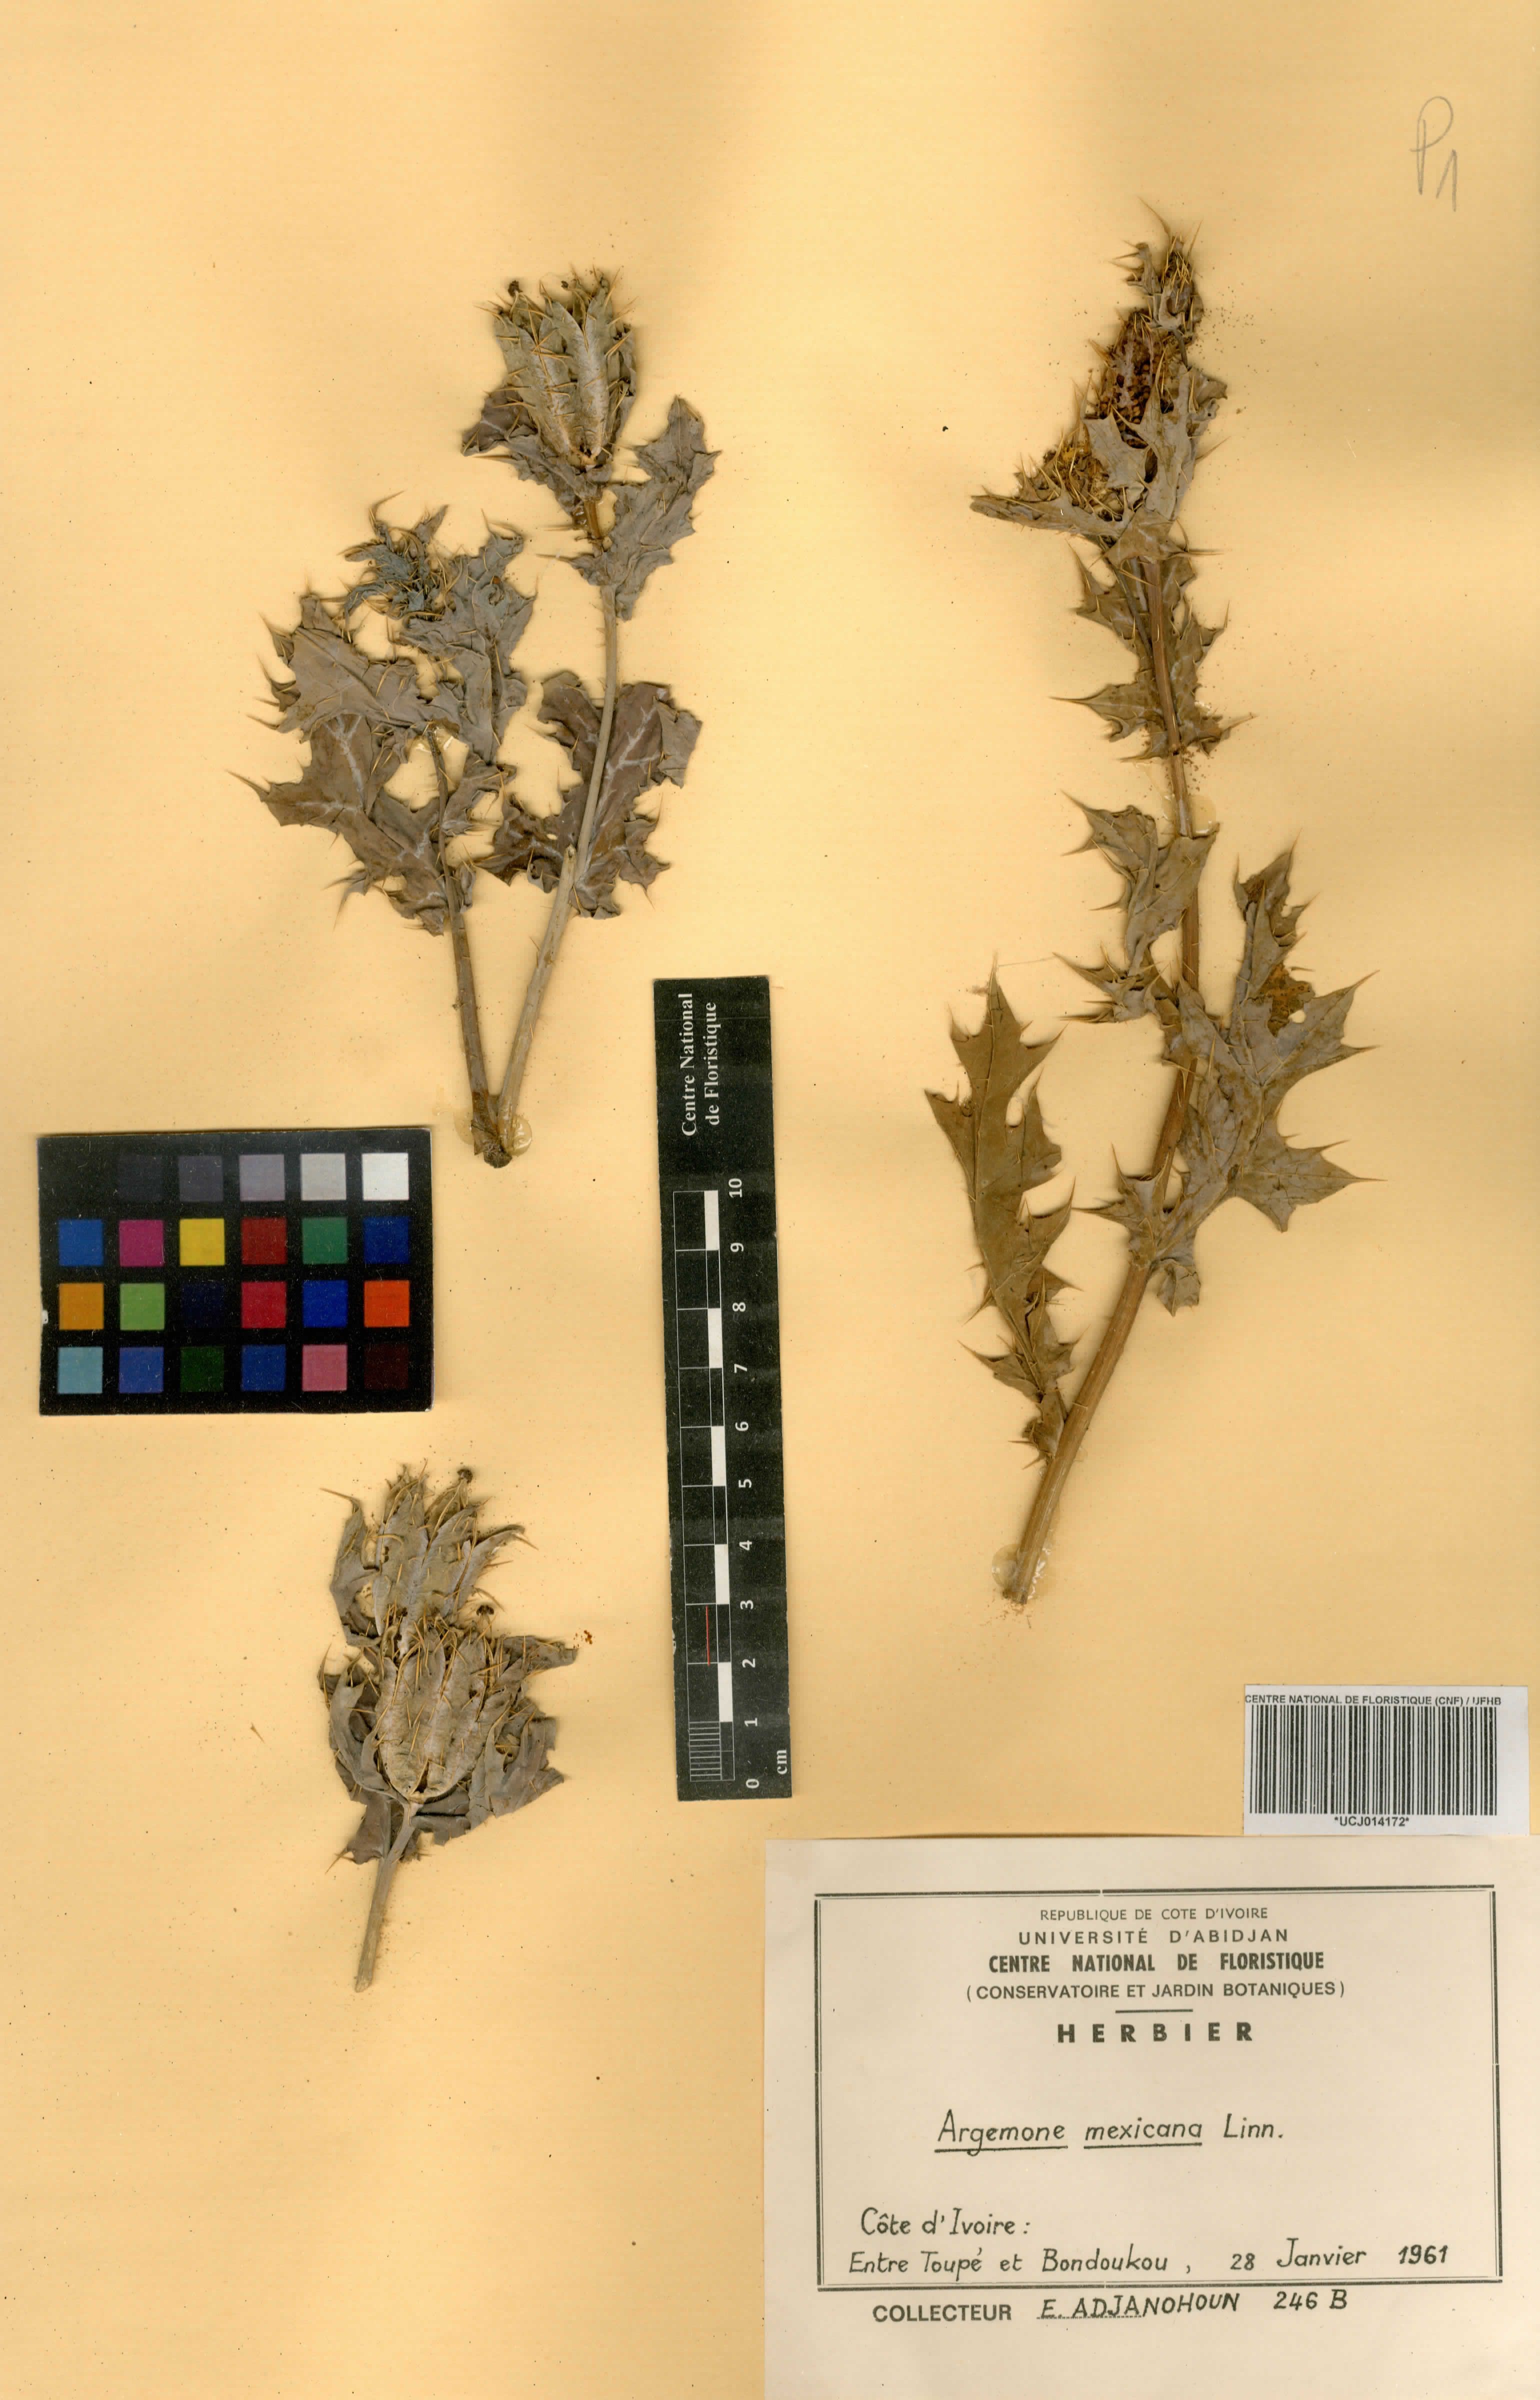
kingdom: Plantae
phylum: Tracheophyta
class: Magnoliopsida
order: Ranunculales
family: Papaveraceae
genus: Argemone
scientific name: Argemone mexicana
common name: Mexican poppy
